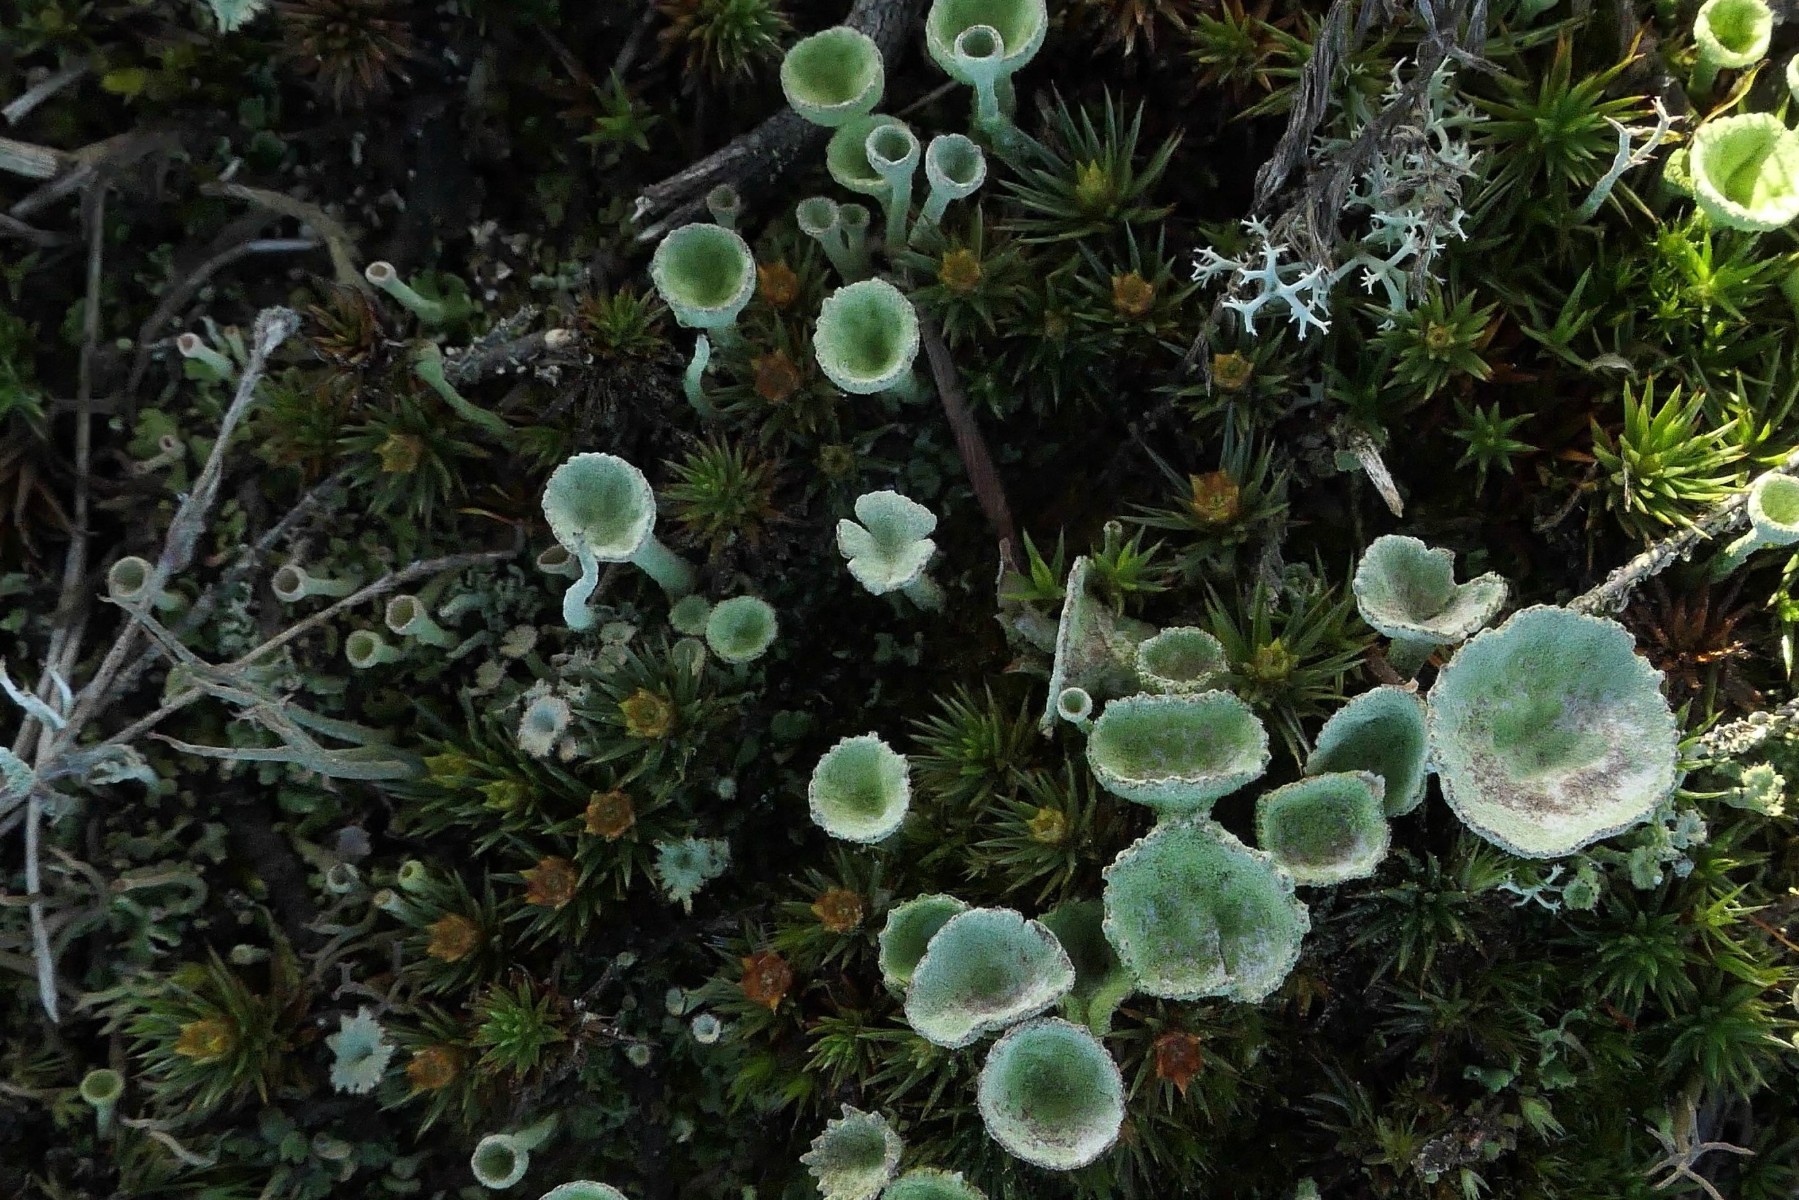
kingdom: Fungi
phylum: Ascomycota
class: Lecanoromycetes
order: Lecanorales
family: Cladoniaceae
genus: Cladonia
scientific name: Cladonia fimbriata
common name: bleggrøn bægerlav
